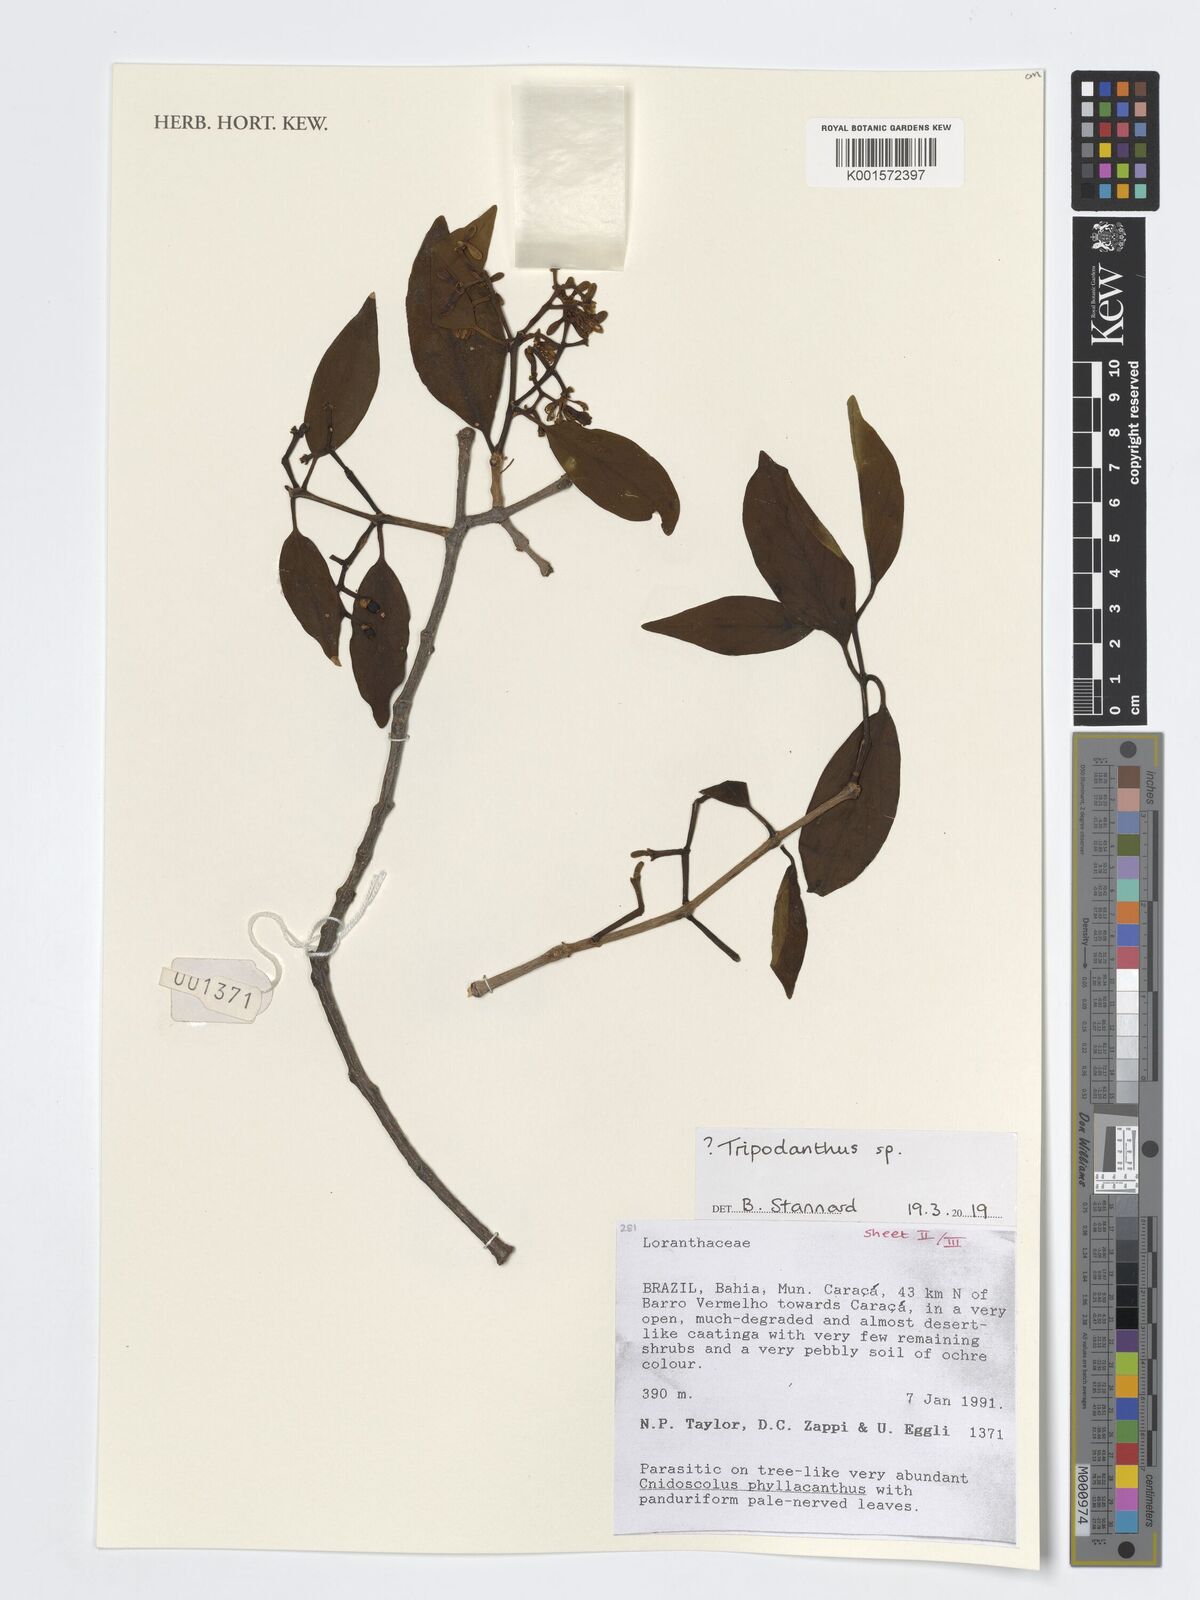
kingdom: Plantae
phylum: Tracheophyta
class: Magnoliopsida
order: Santalales
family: Loranthaceae
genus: Tripodanthus
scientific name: Tripodanthus
